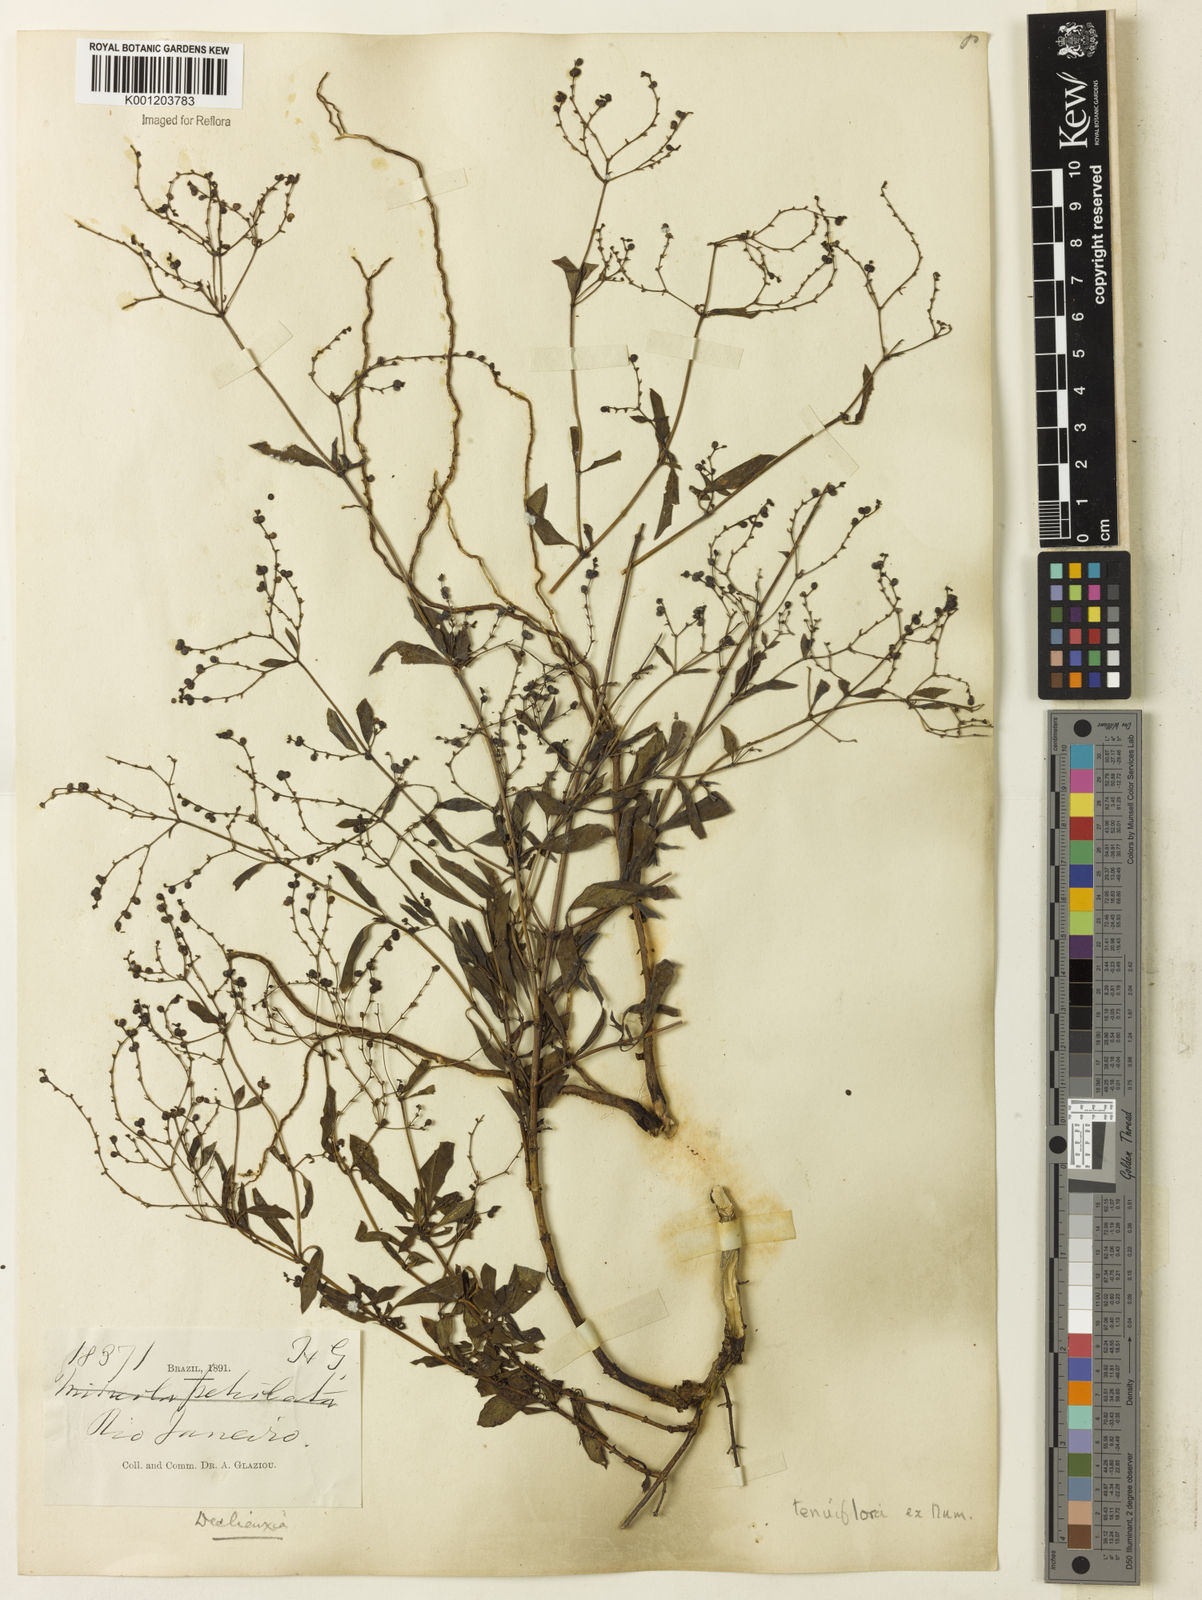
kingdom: Plantae
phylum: Tracheophyta
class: Magnoliopsida
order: Gentianales
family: Rubiaceae
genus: Declieuxia
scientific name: Declieuxia tenuiflora
